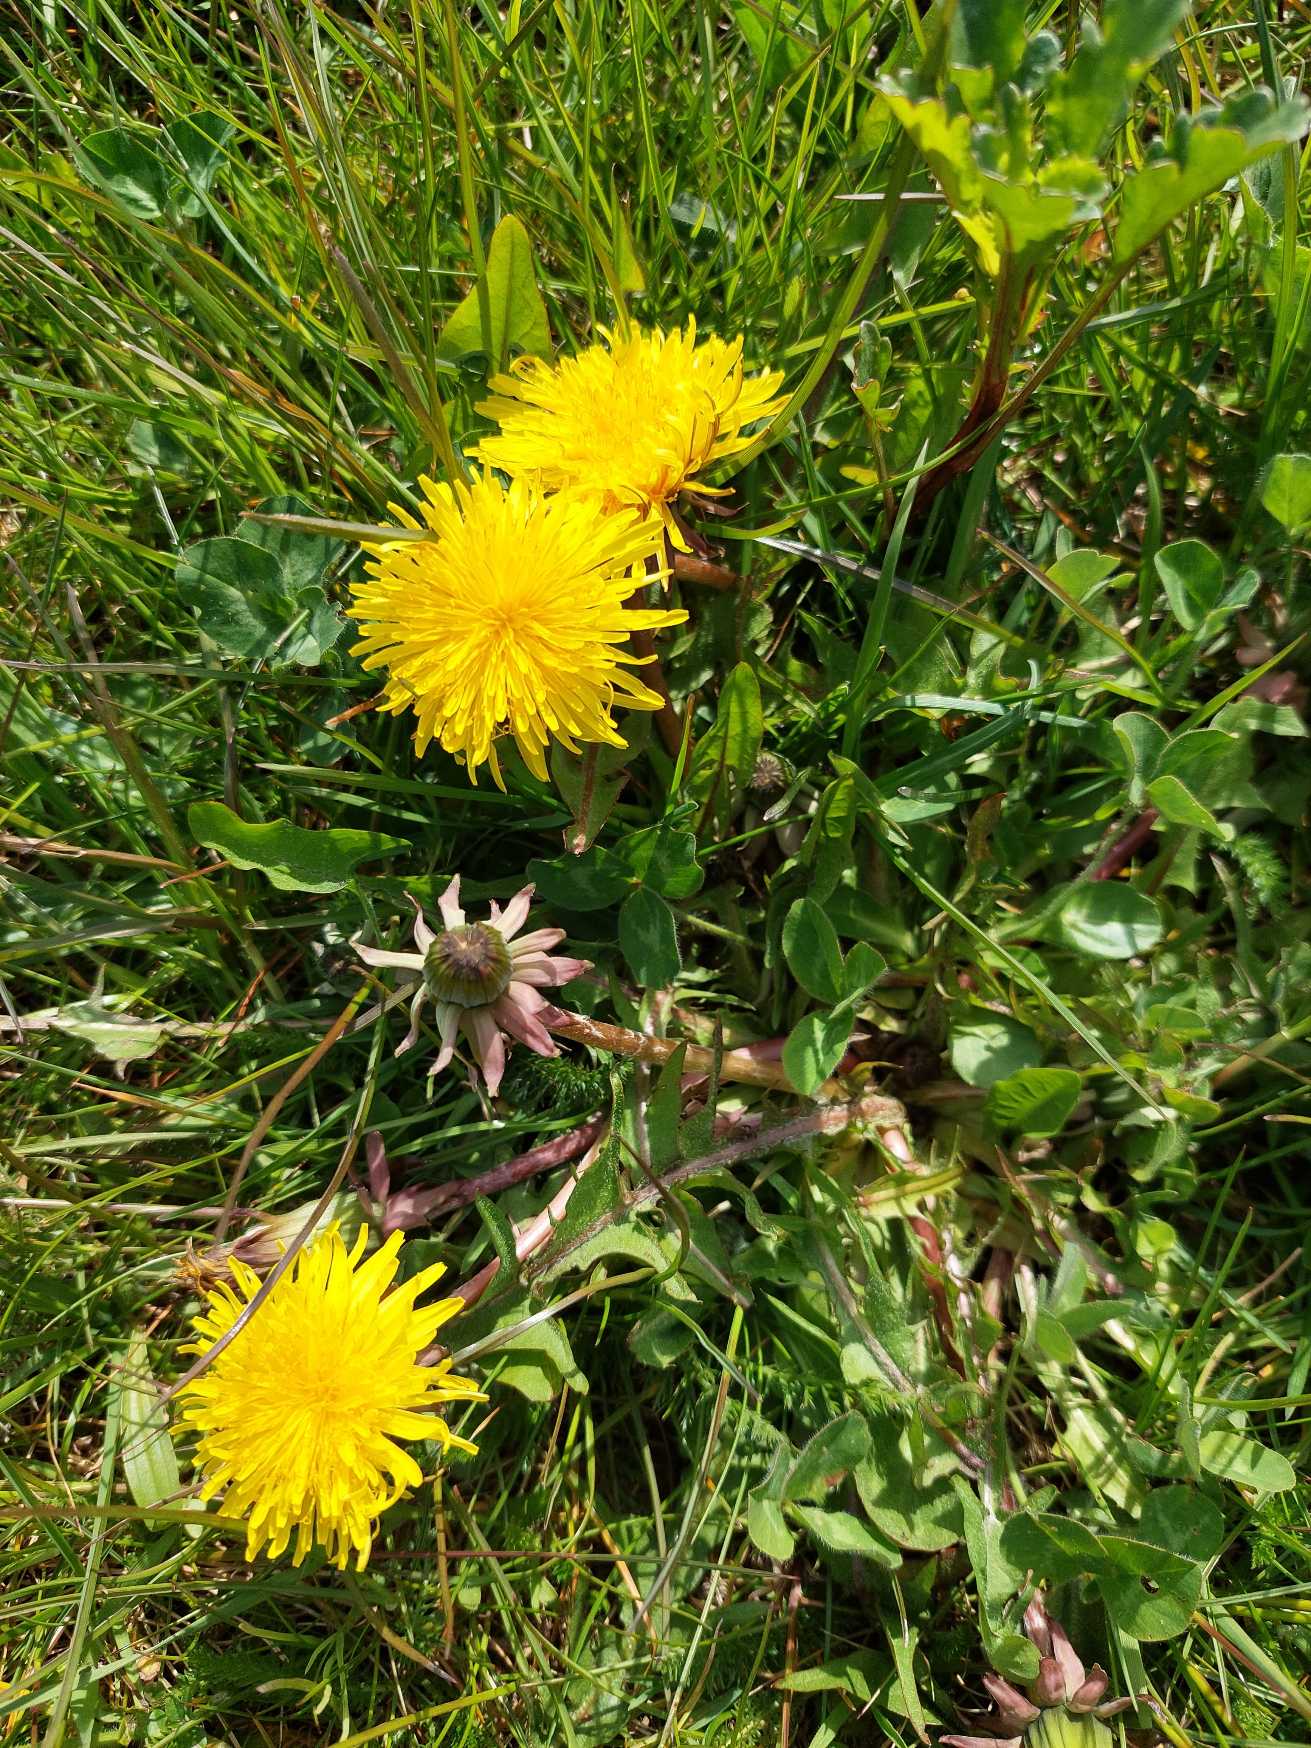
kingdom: Plantae
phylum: Tracheophyta
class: Magnoliopsida
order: Asterales
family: Asteraceae
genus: Taraxacum
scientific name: Taraxacum
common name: Mælkebøtteslægten
